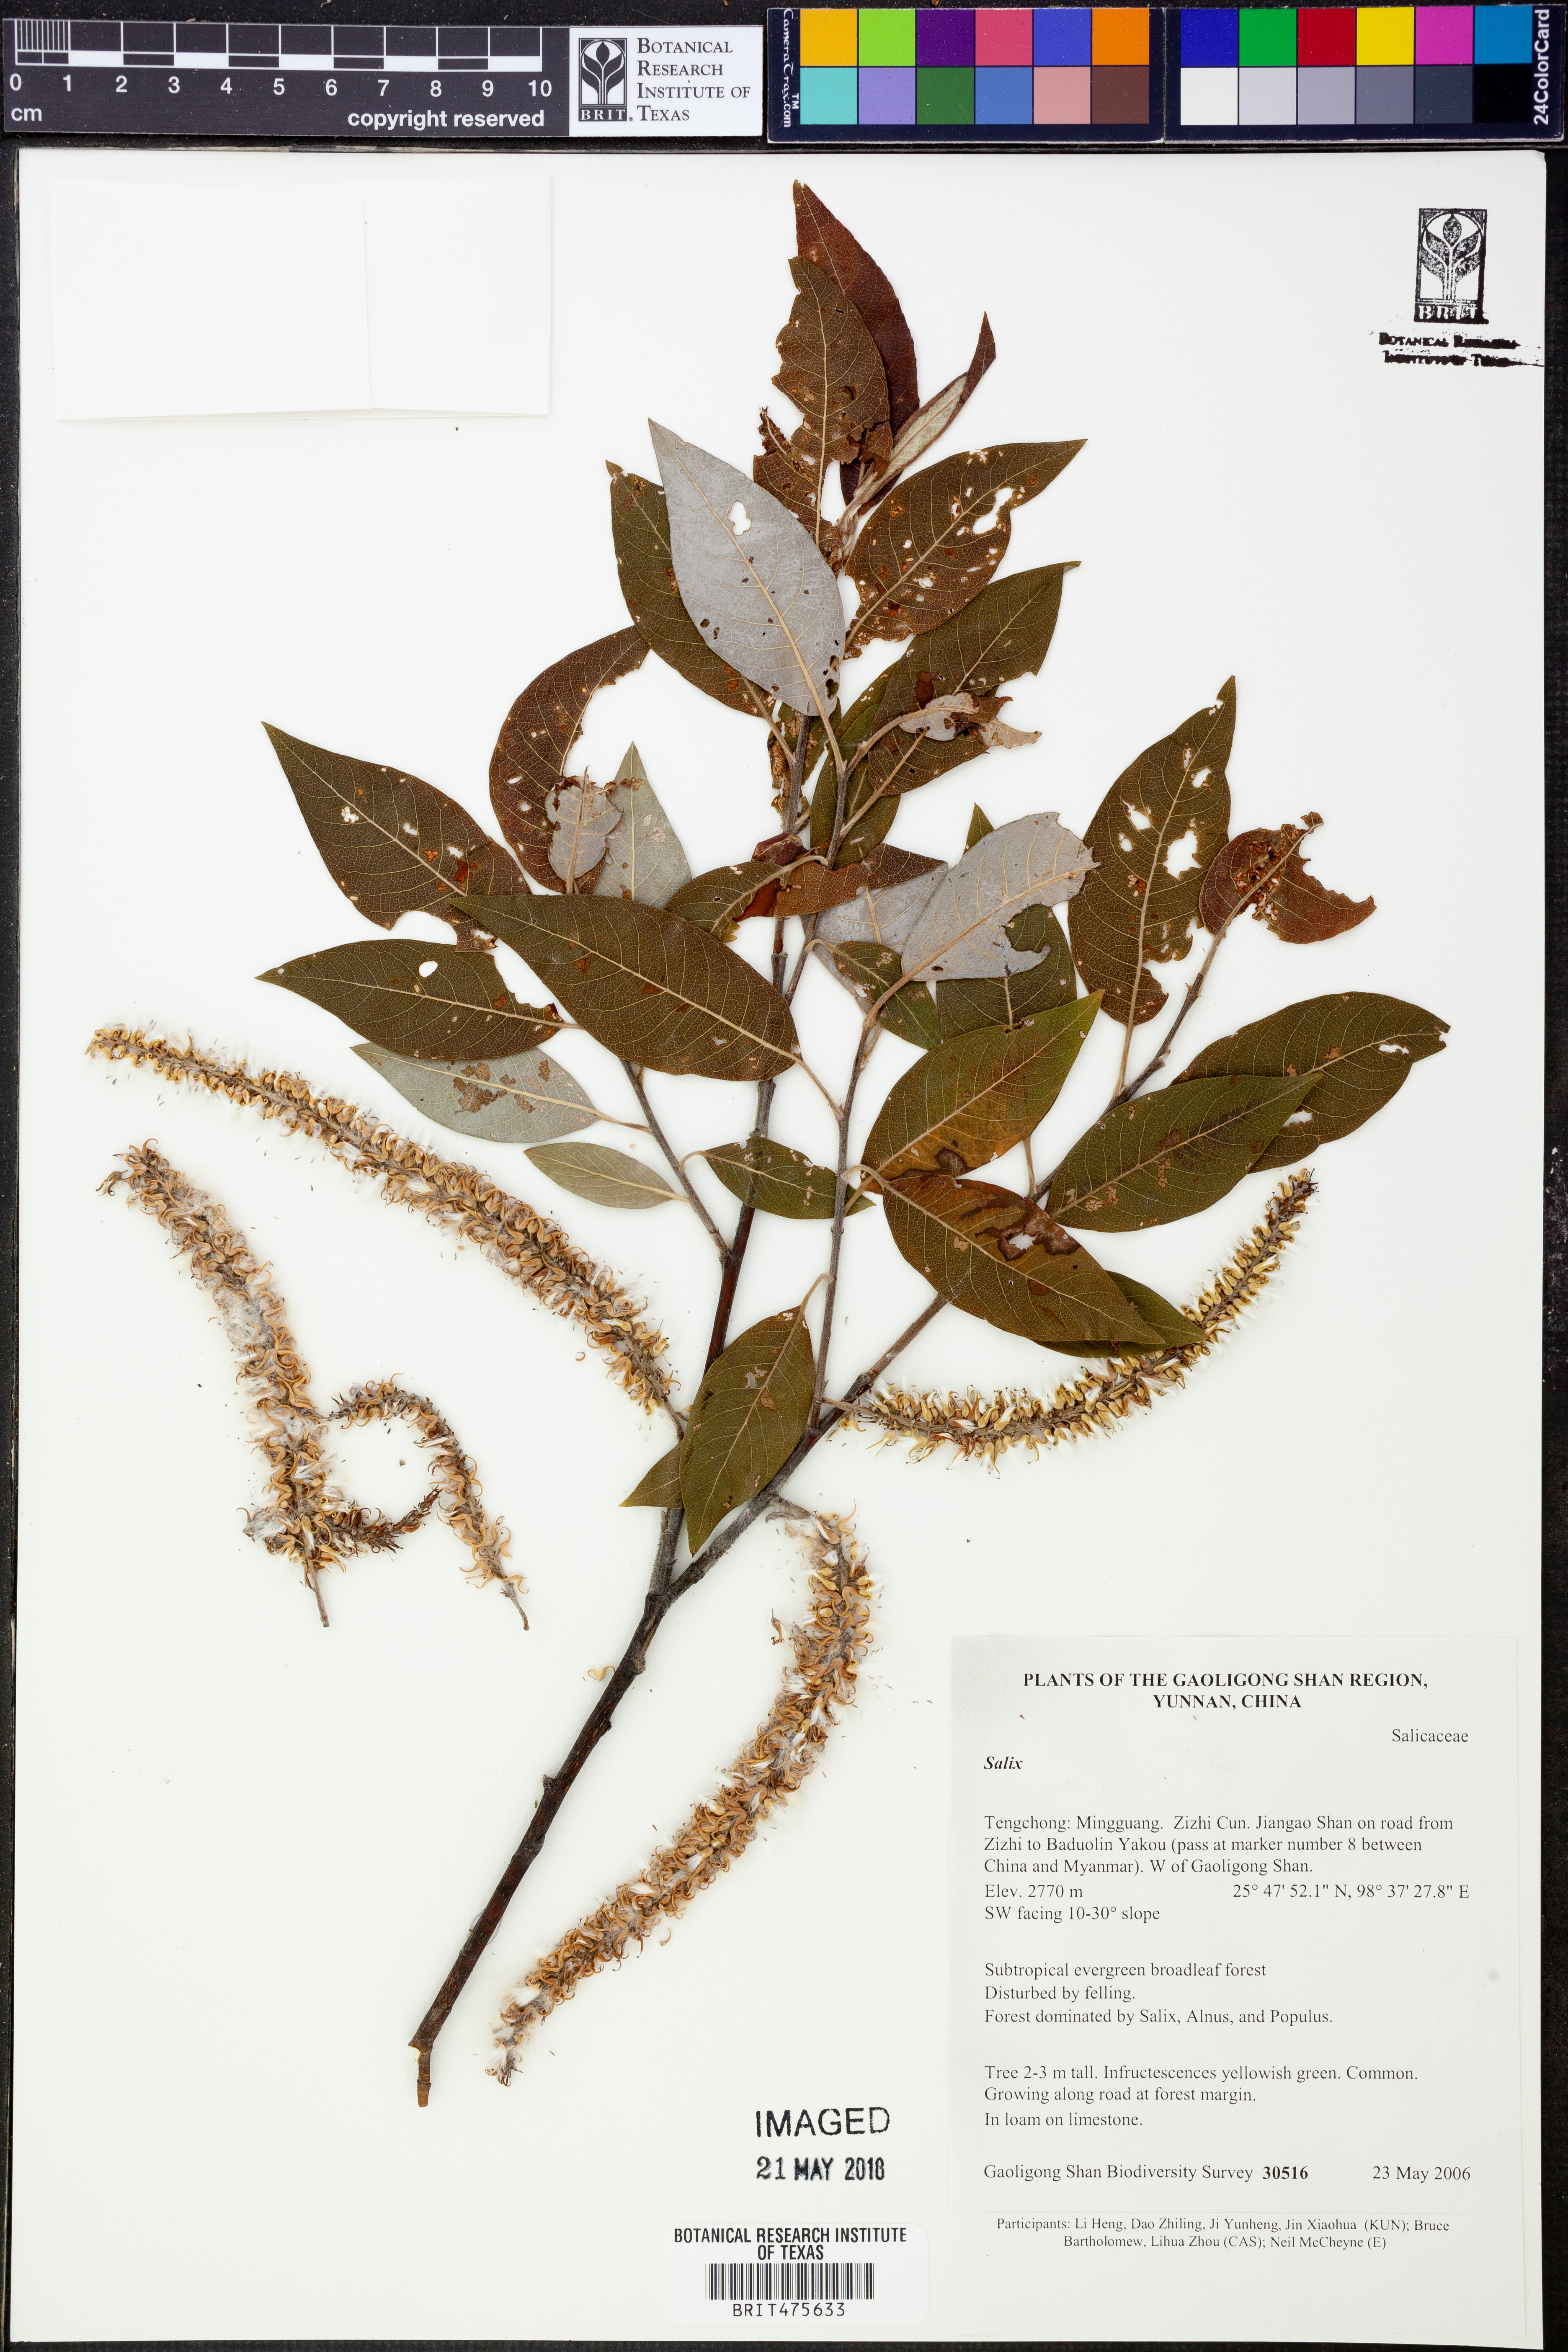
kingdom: Plantae
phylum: Tracheophyta
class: Magnoliopsida
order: Malpighiales
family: Salicaceae
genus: Salix
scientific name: Salix
